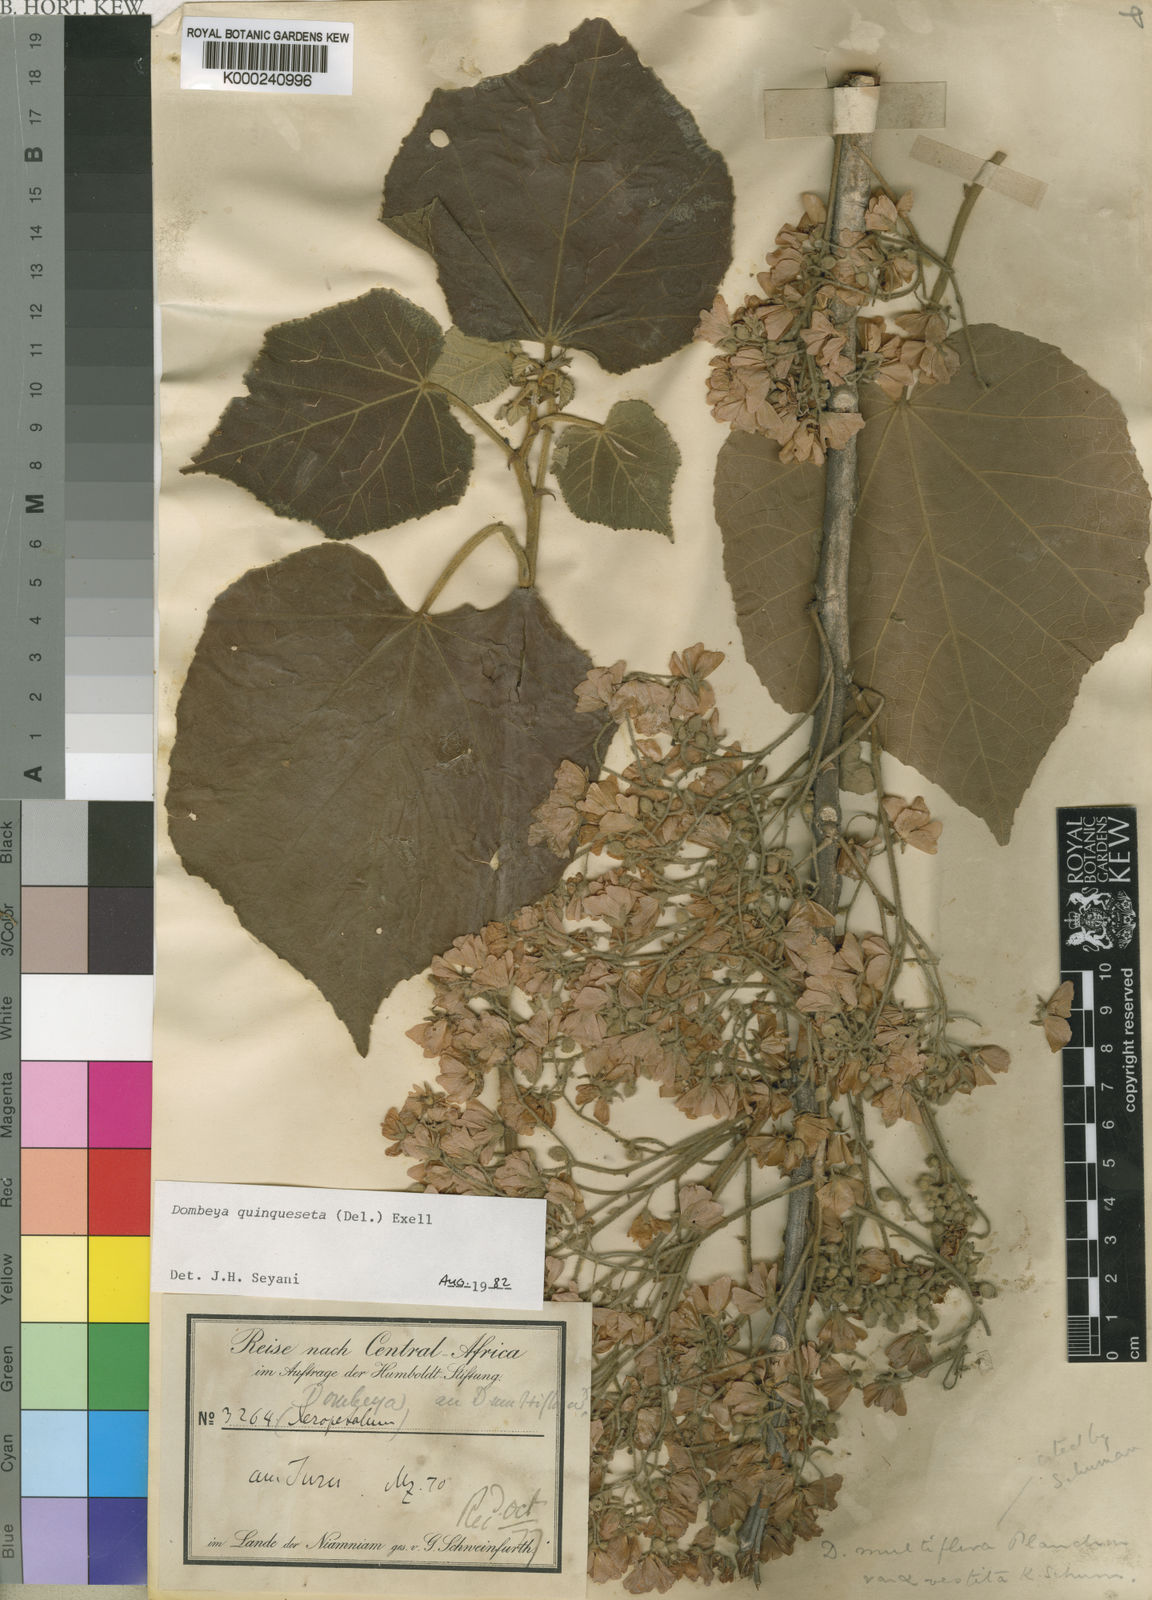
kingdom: Plantae
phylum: Tracheophyta
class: Magnoliopsida
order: Malvales
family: Malvaceae
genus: Dombeya
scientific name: Dombeya quinqueseta
